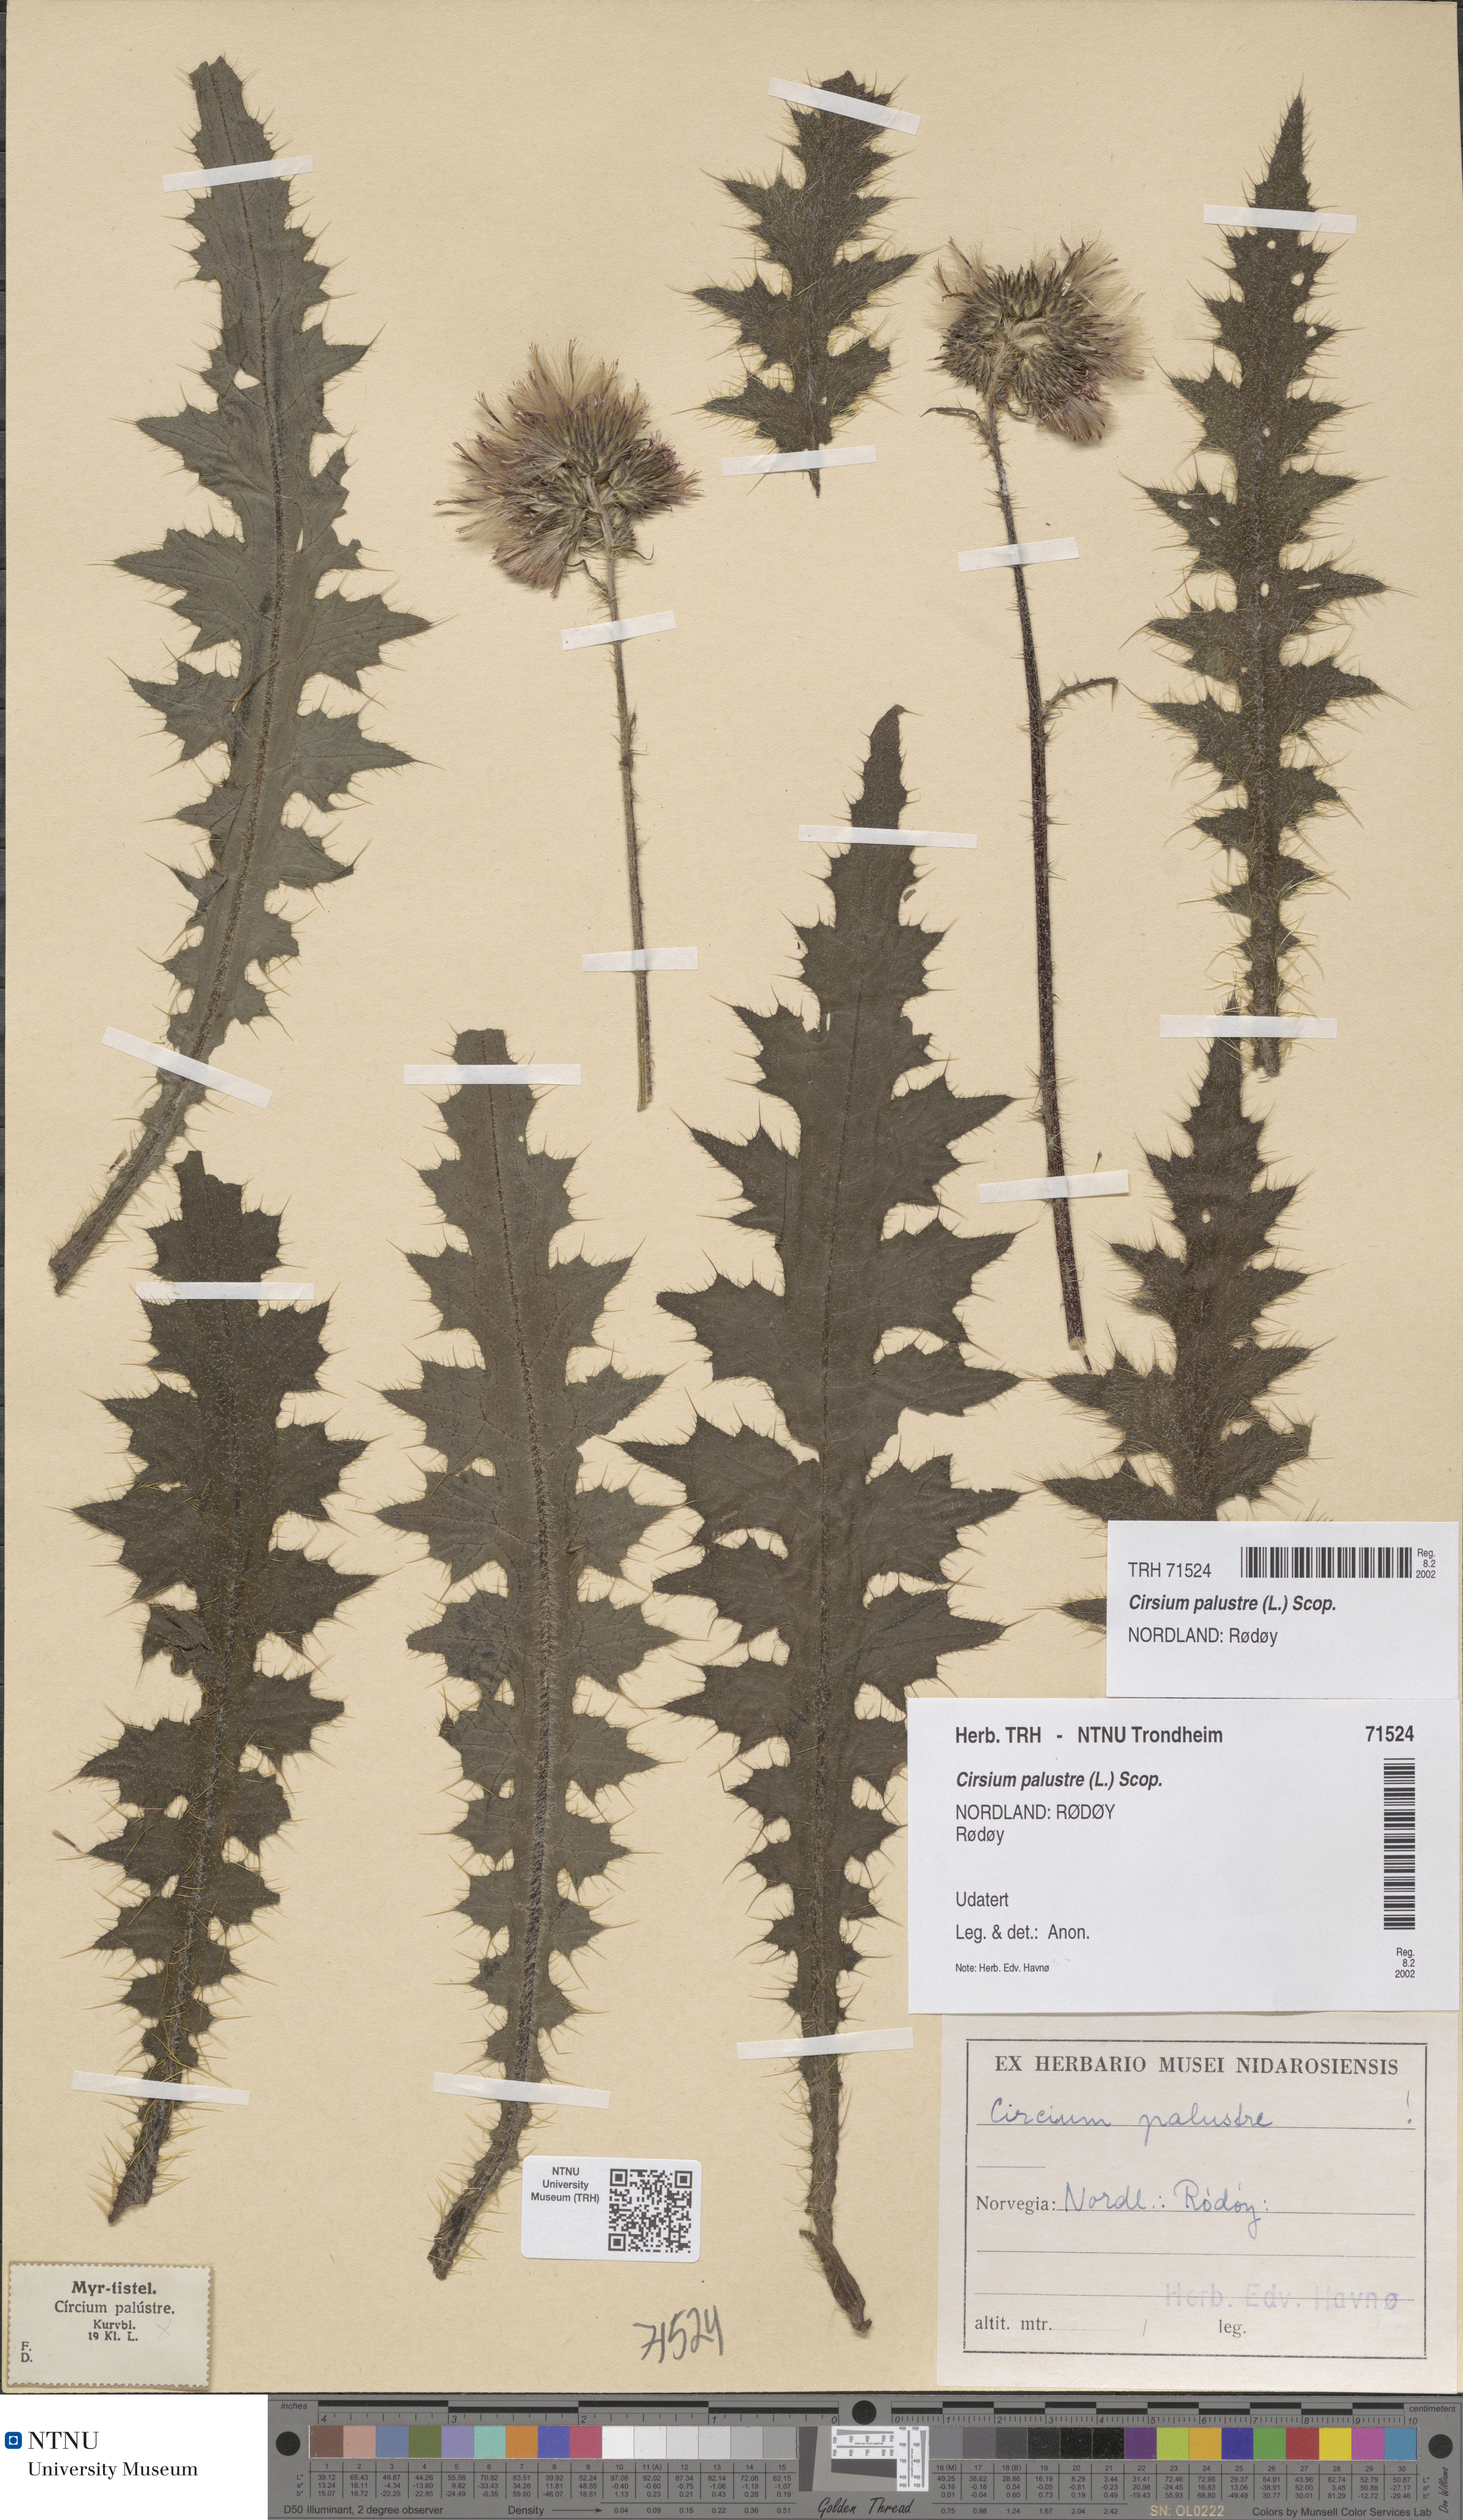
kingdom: Plantae
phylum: Tracheophyta
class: Magnoliopsida
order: Asterales
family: Asteraceae
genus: Cirsium
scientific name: Cirsium palustre
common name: Marsh thistle
